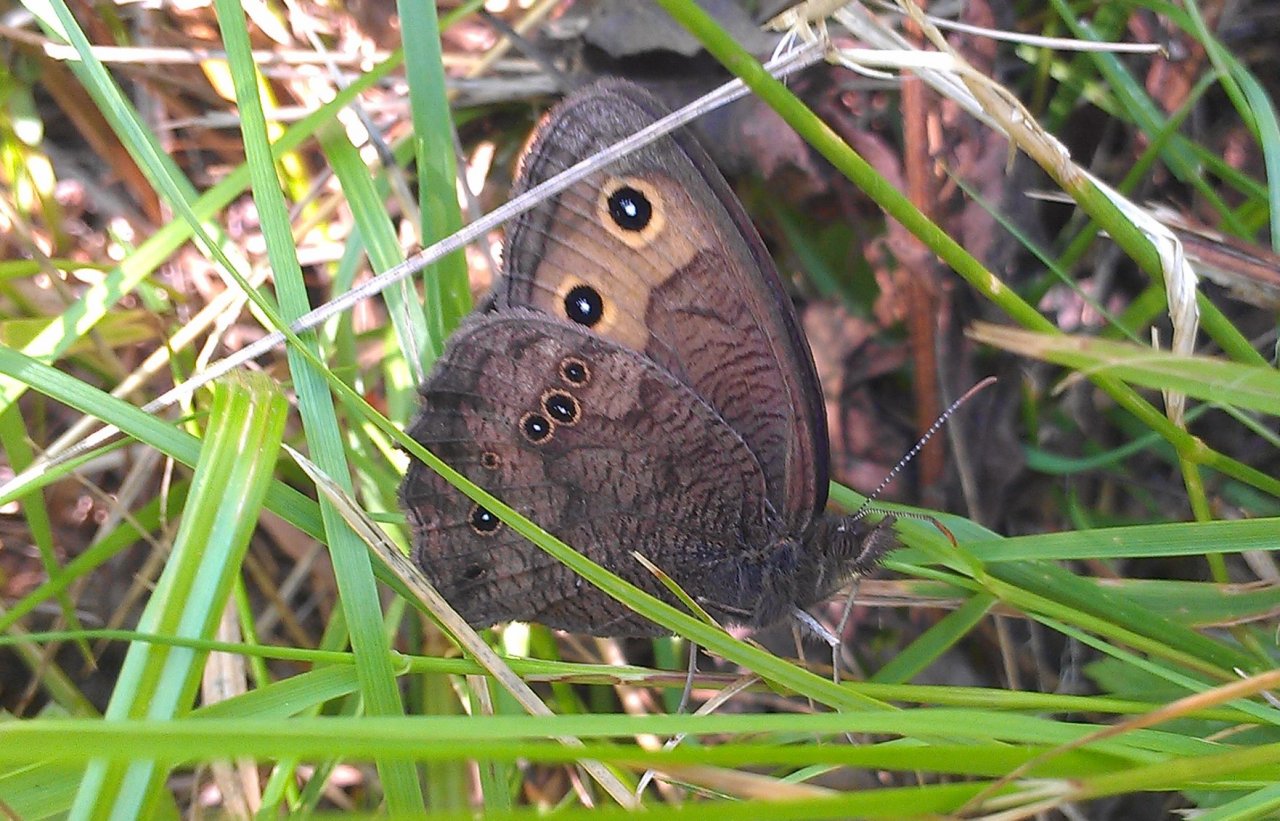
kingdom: Animalia
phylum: Arthropoda
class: Insecta
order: Lepidoptera
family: Nymphalidae
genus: Cercyonis
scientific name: Cercyonis pegala
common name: Common Wood-Nymph
